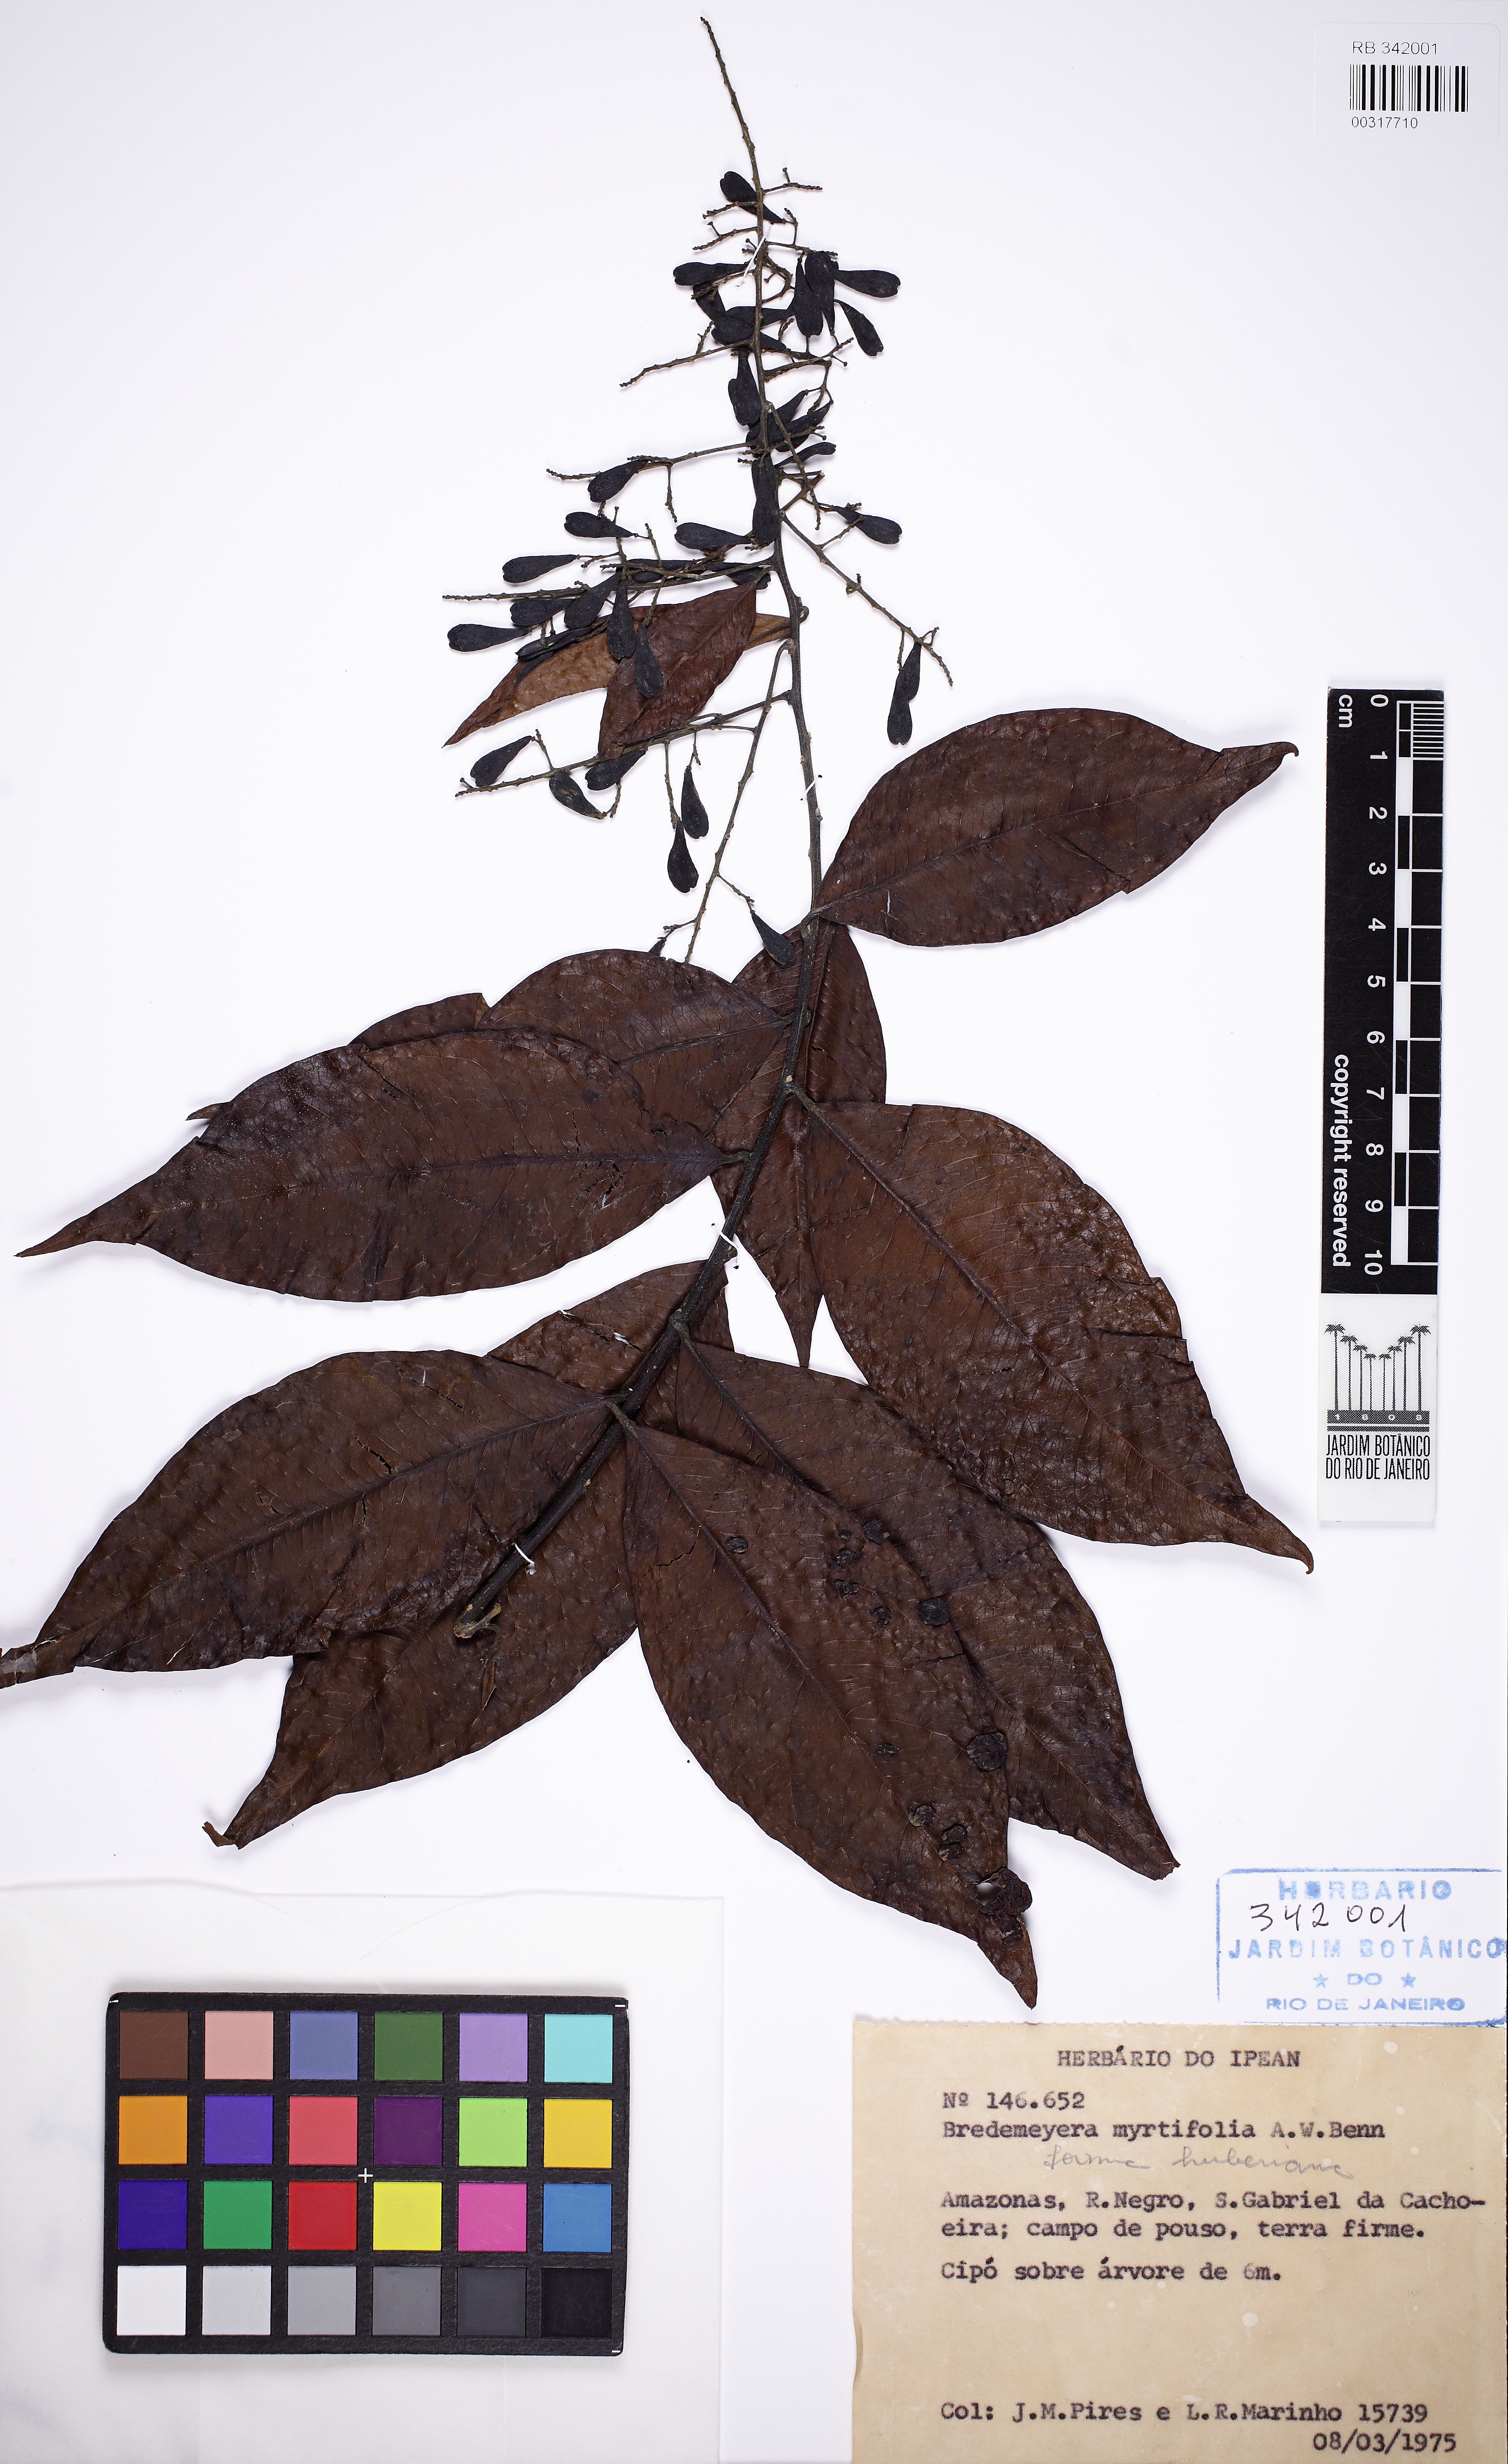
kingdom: Plantae
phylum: Tracheophyta
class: Magnoliopsida
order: Fabales
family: Polygalaceae
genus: Bredemeyera
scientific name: Bredemeyera myrtifolia
